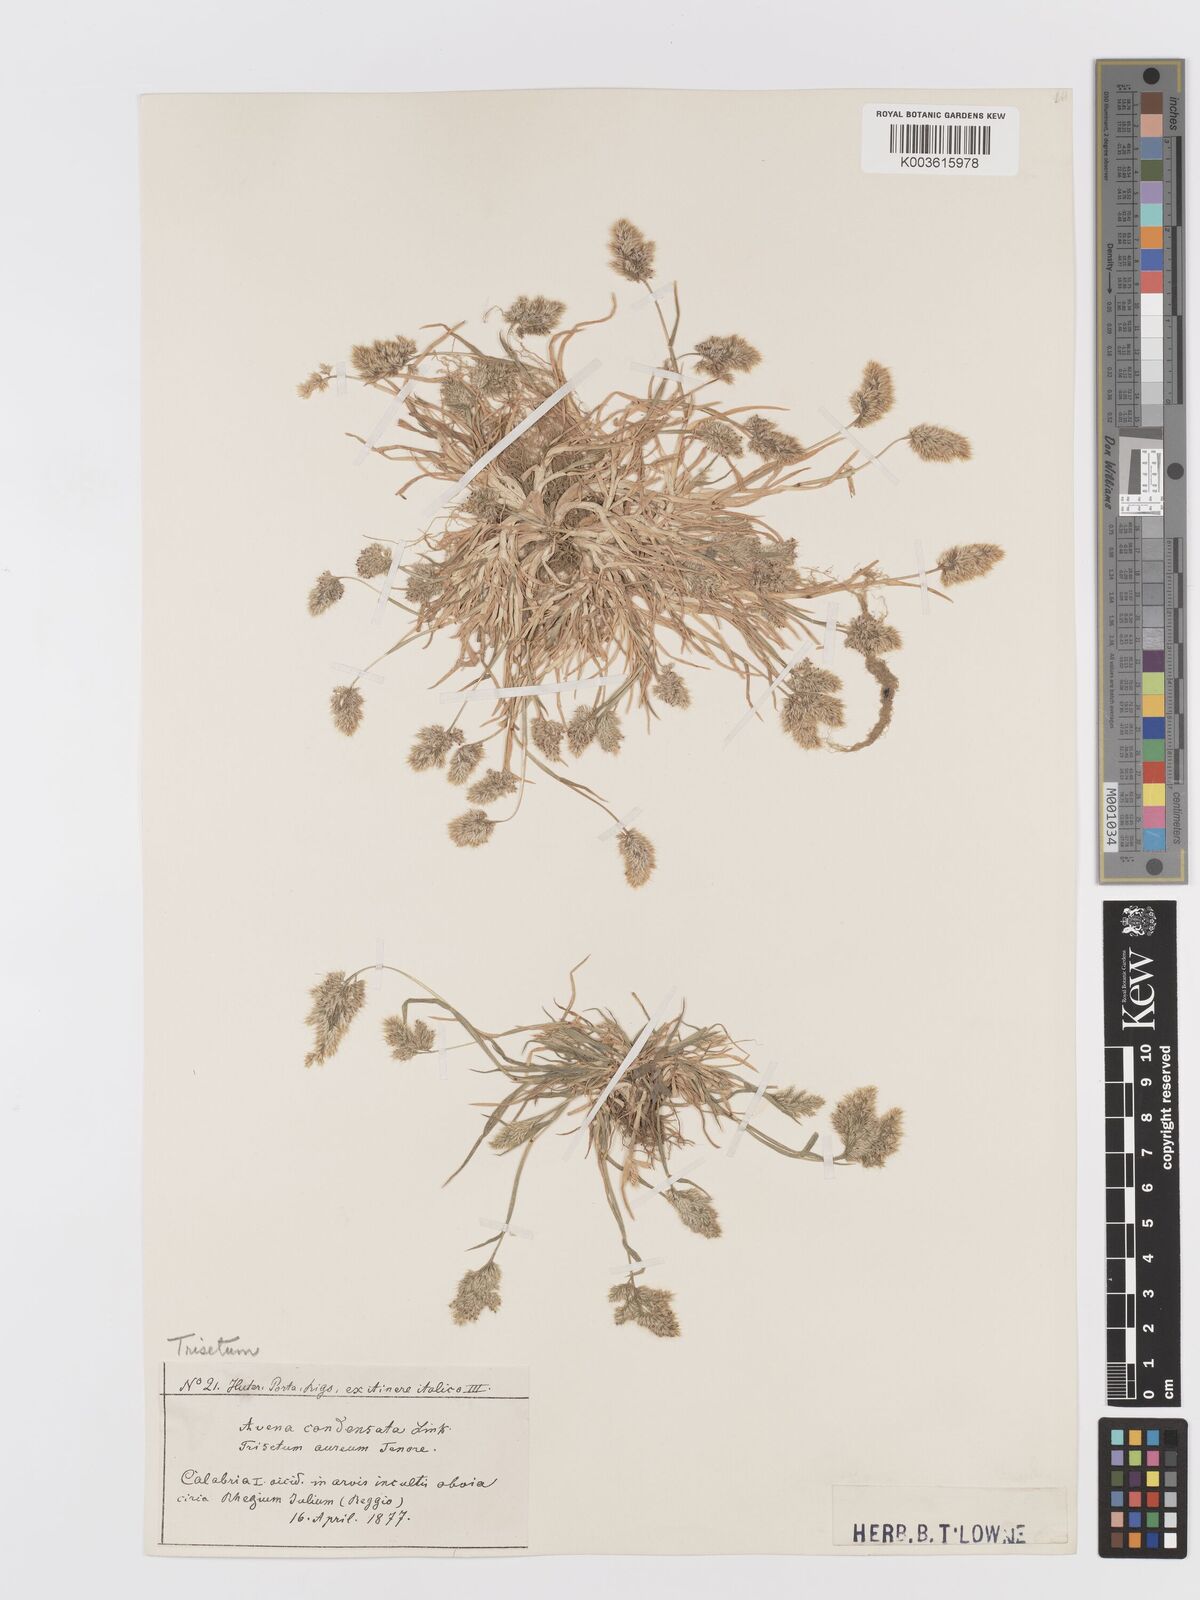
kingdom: Plantae
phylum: Tracheophyta
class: Liliopsida
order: Poales
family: Poaceae
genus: Trisetaria
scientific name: Trisetaria aurea
